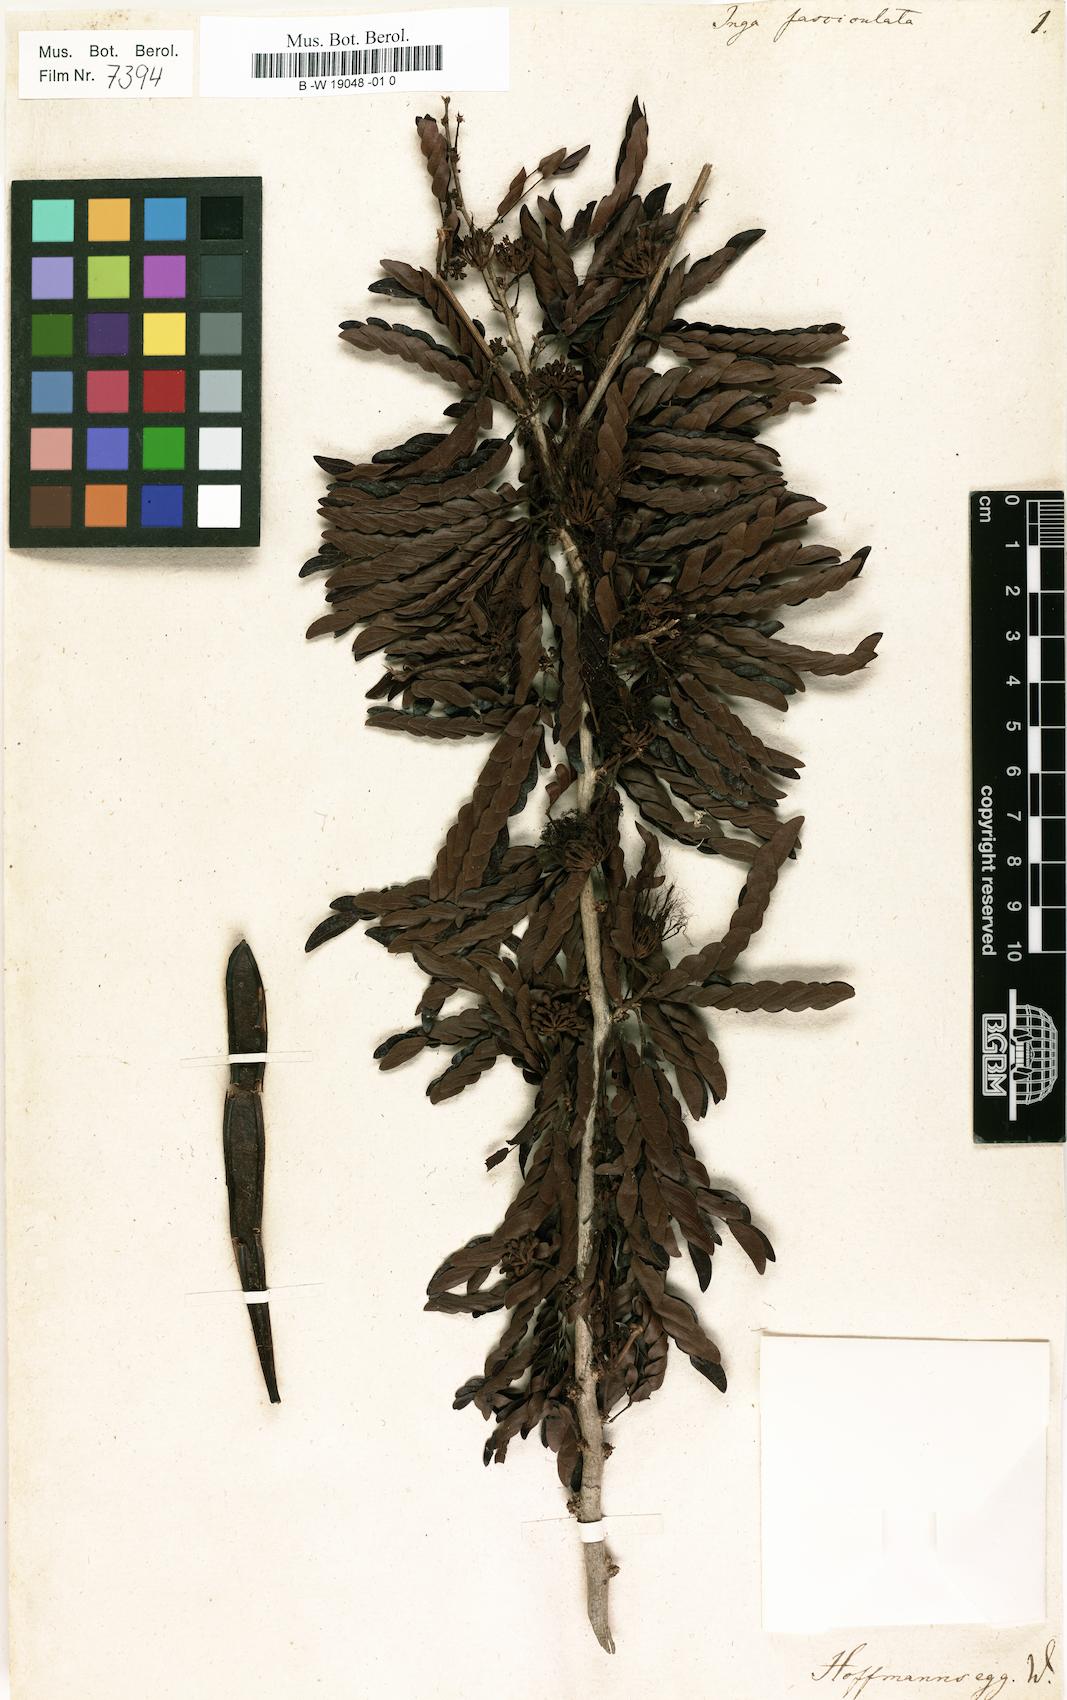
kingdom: Plantae
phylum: Tracheophyta
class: Magnoliopsida
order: Fabales
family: Fabaceae
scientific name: Fabaceae
